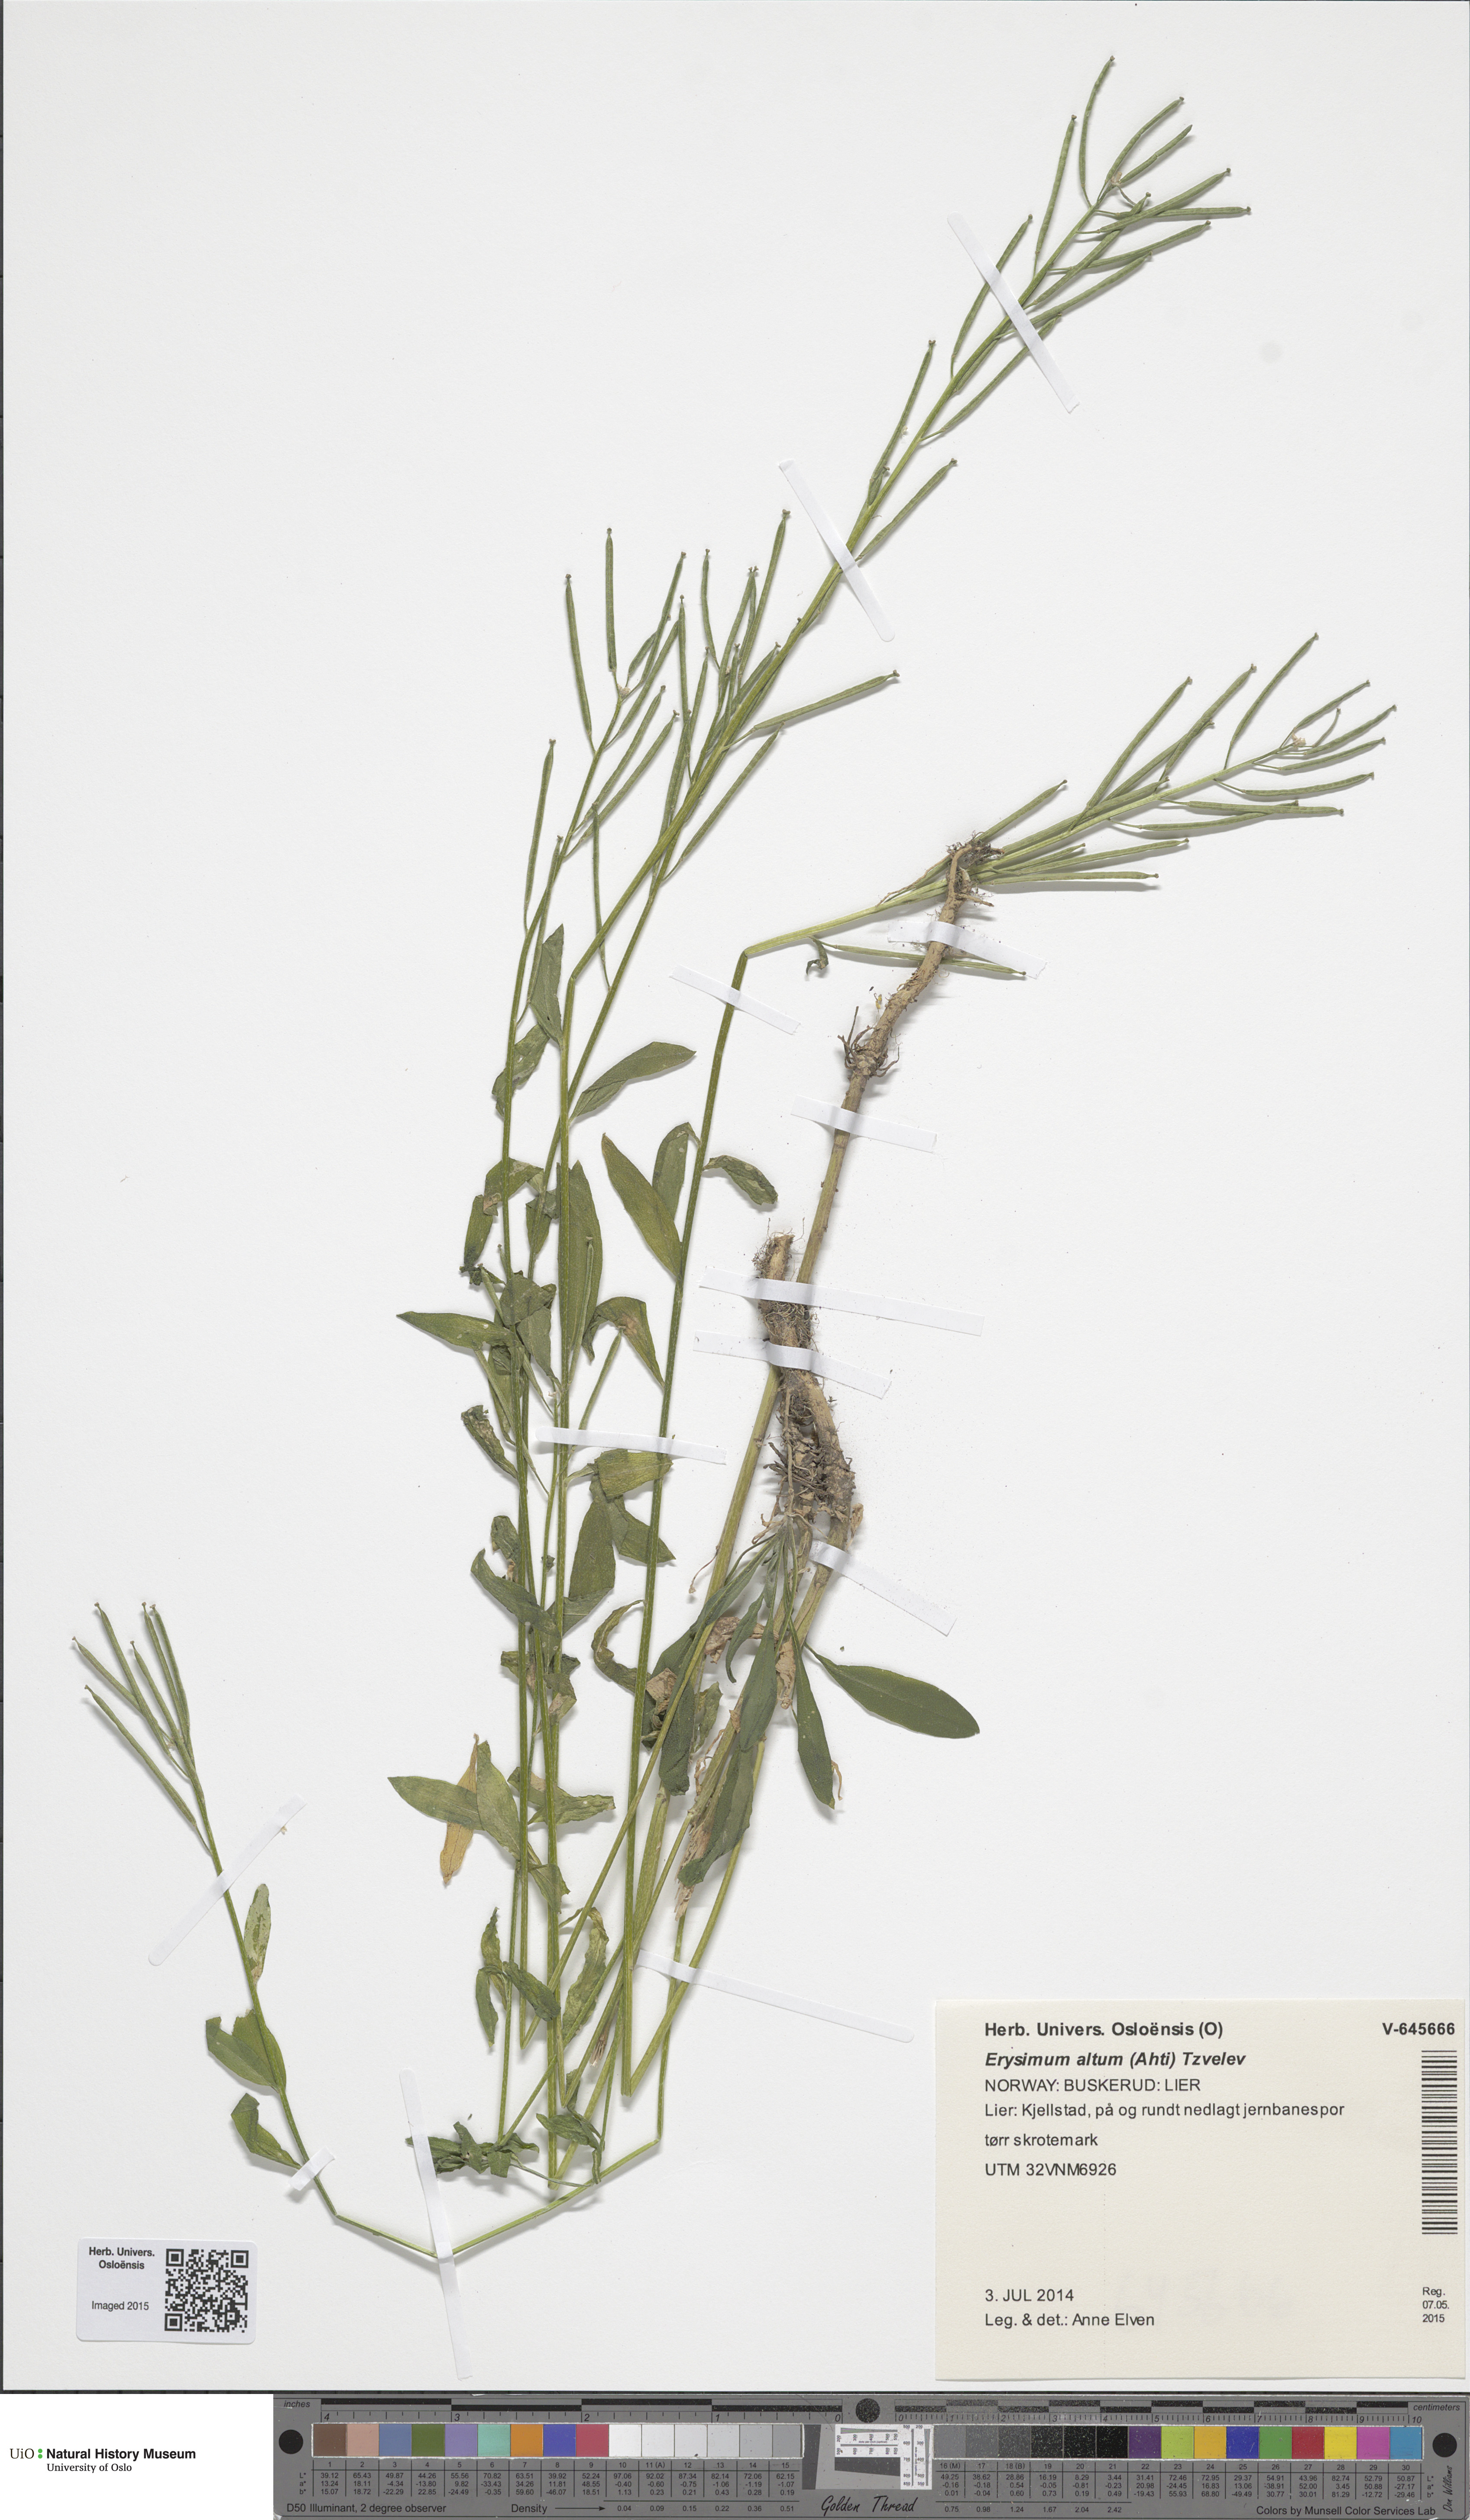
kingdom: Plantae
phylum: Tracheophyta
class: Magnoliopsida
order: Brassicales
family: Brassicaceae
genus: Erysimum
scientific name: Erysimum cheiranthoides
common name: Treacle mustard
